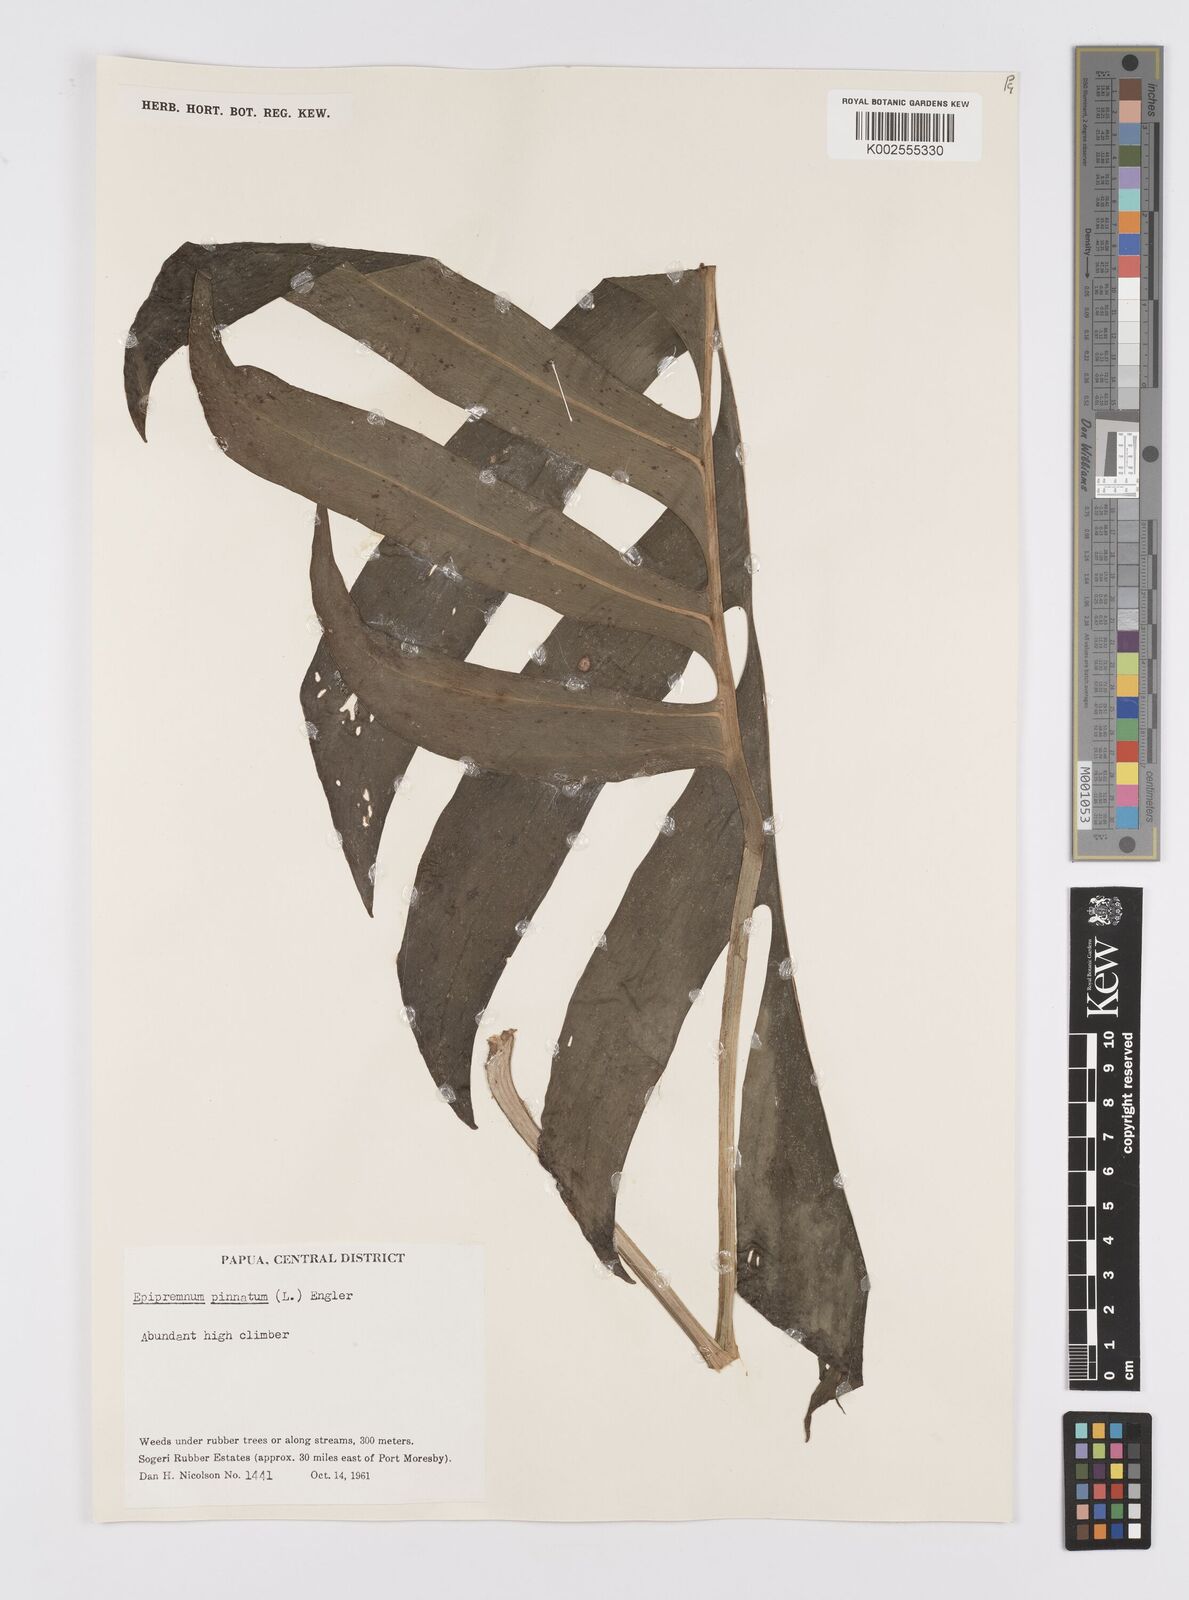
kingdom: Plantae
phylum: Tracheophyta
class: Liliopsida
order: Alismatales
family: Araceae
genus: Epipremnum
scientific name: Epipremnum pinnatum
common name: Centipede tongavine
